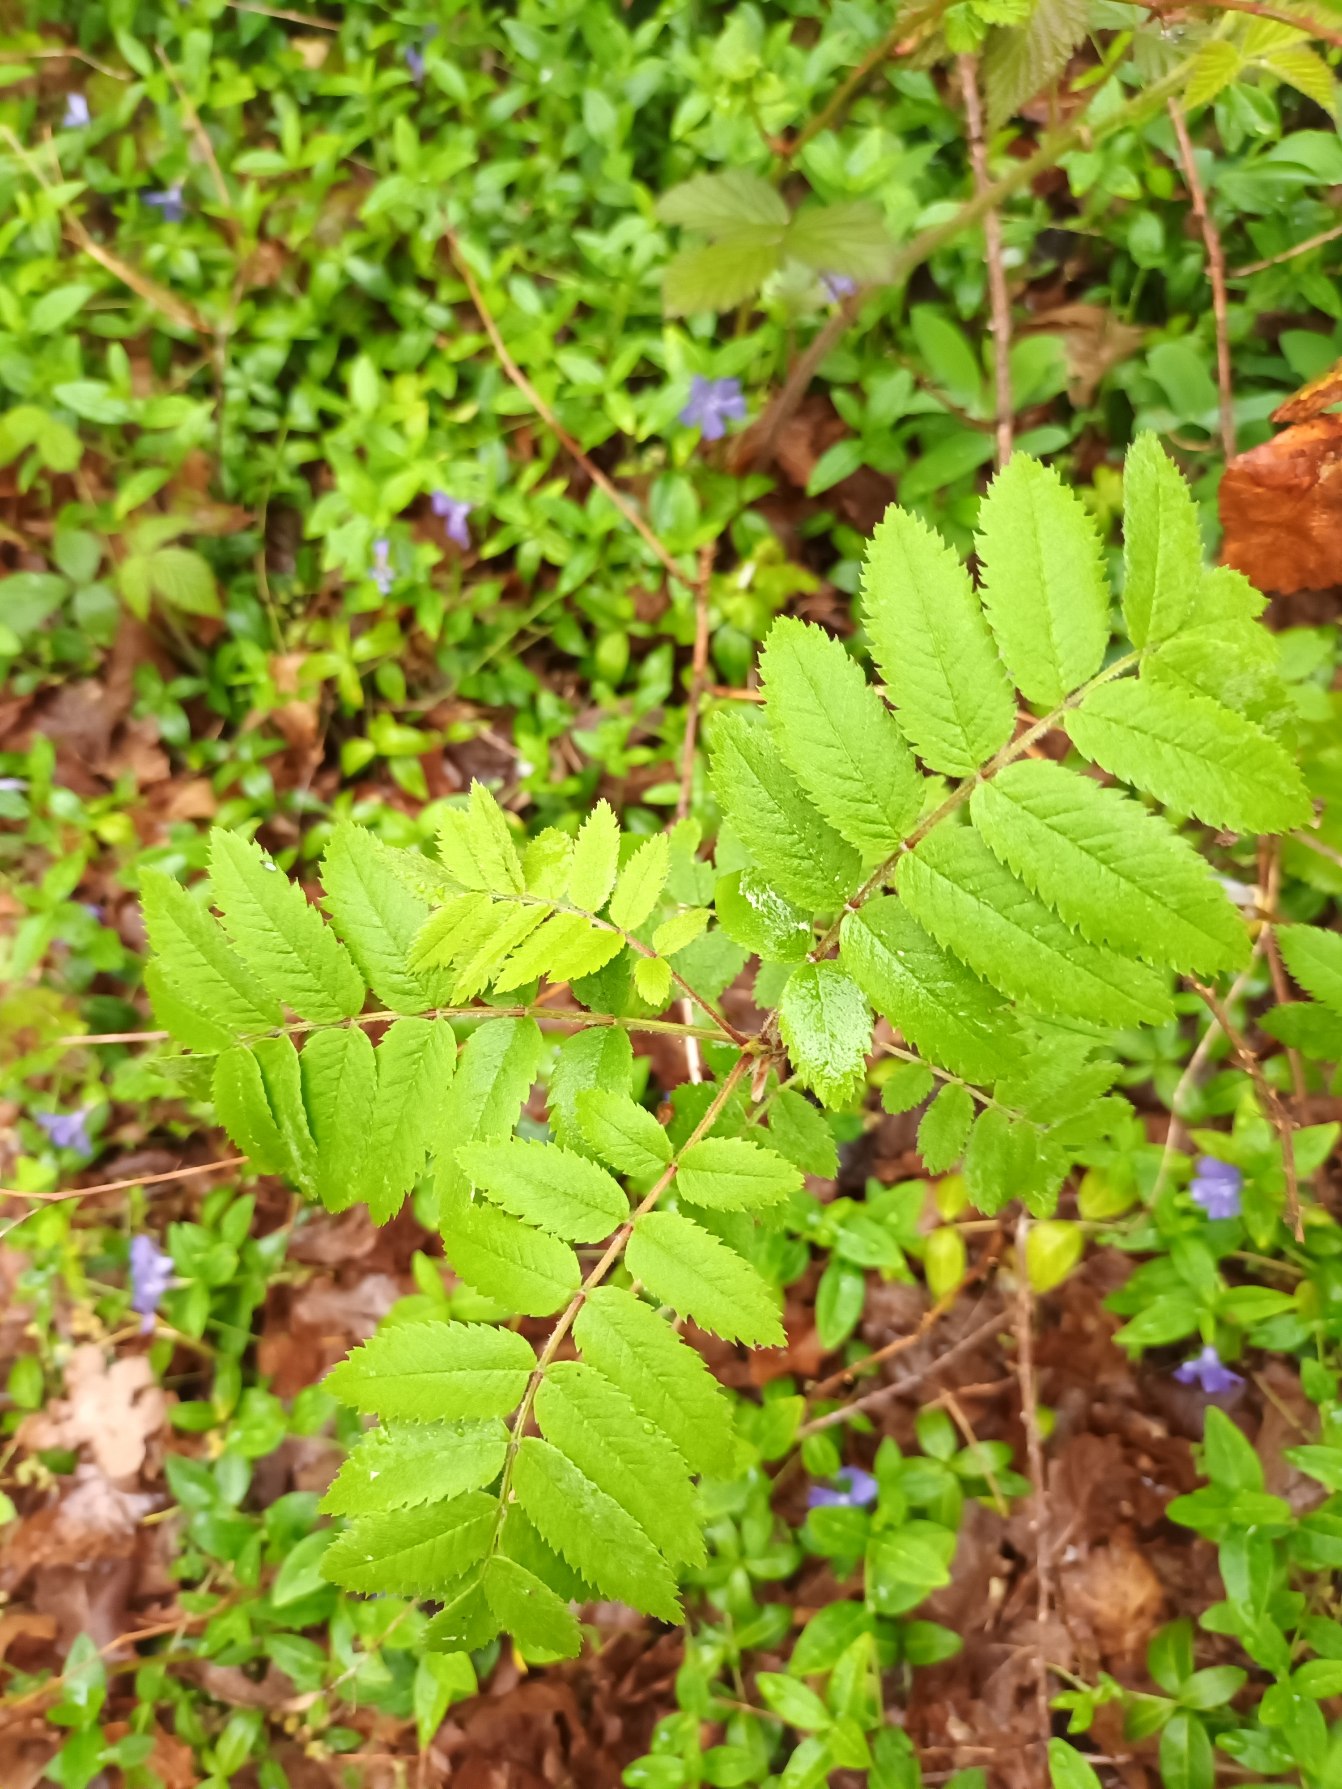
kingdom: Plantae
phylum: Tracheophyta
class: Magnoliopsida
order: Rosales
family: Rosaceae
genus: Sorbus
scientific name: Sorbus aucuparia
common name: Almindelig røn
